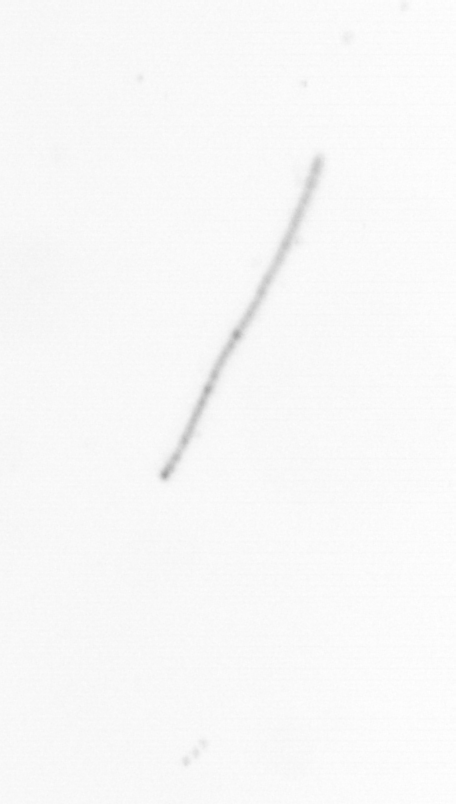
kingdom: Chromista
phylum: Ochrophyta
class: Bacillariophyceae
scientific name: Bacillariophyceae
